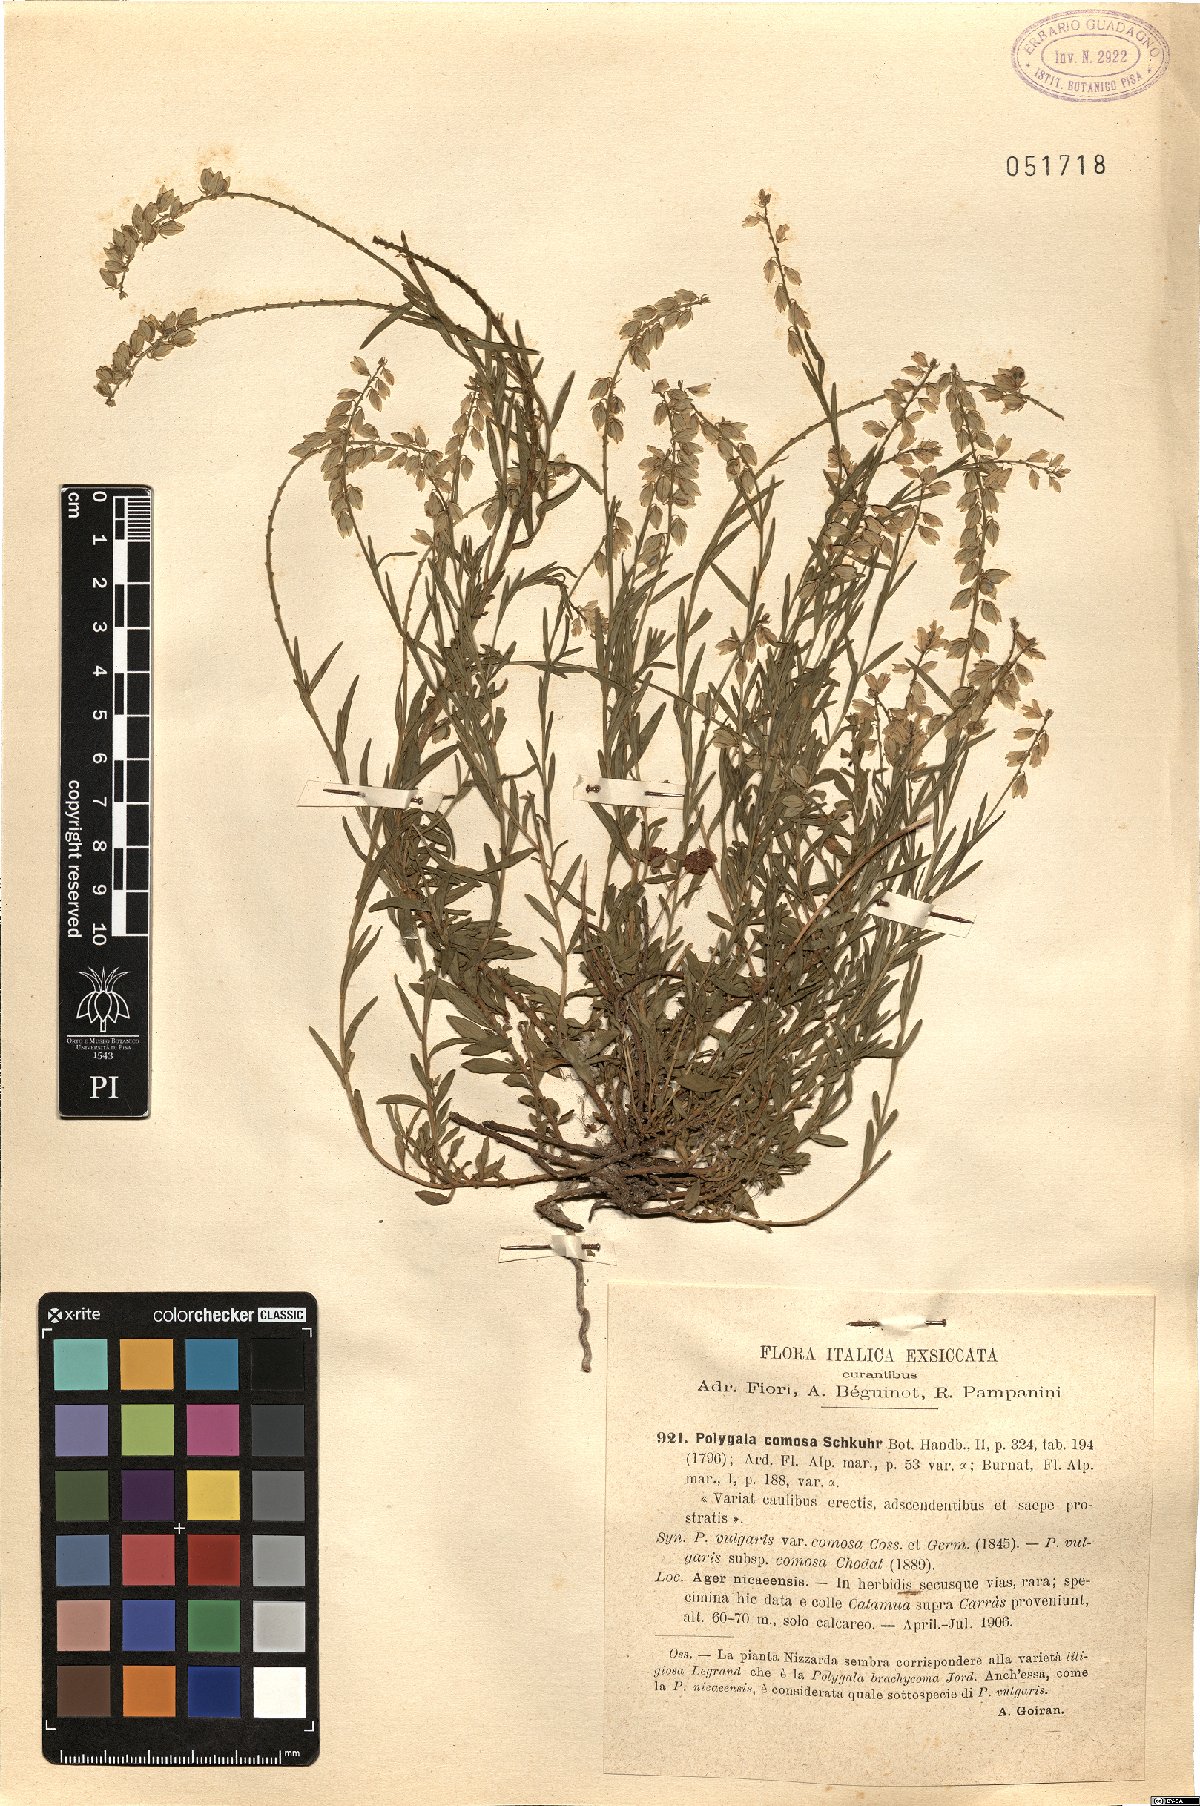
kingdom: Plantae
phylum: Tracheophyta
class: Magnoliopsida
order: Fabales
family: Polygalaceae
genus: Polygala
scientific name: Polygala comosa
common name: Tufted milkwort
